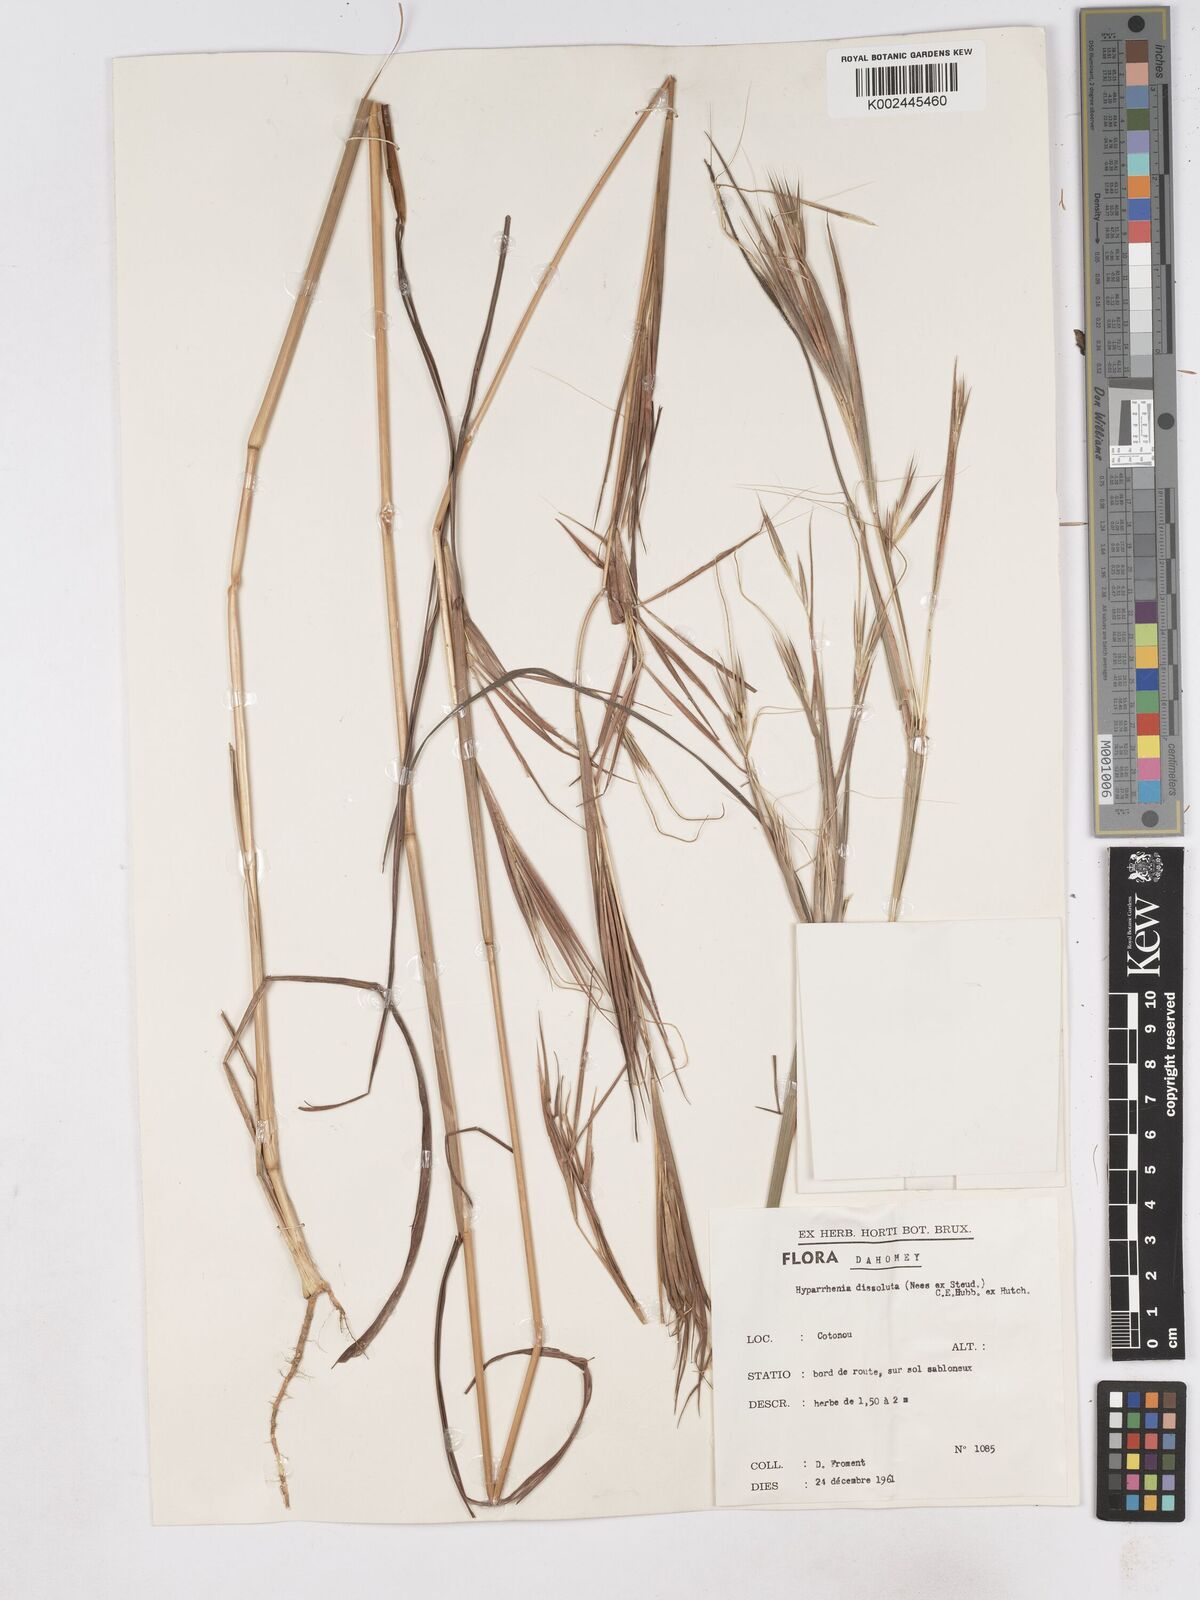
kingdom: Plantae
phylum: Tracheophyta
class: Liliopsida
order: Poales
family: Poaceae
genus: Hyperthelia
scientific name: Hyperthelia dissoluta
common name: Yellow thatching grass
